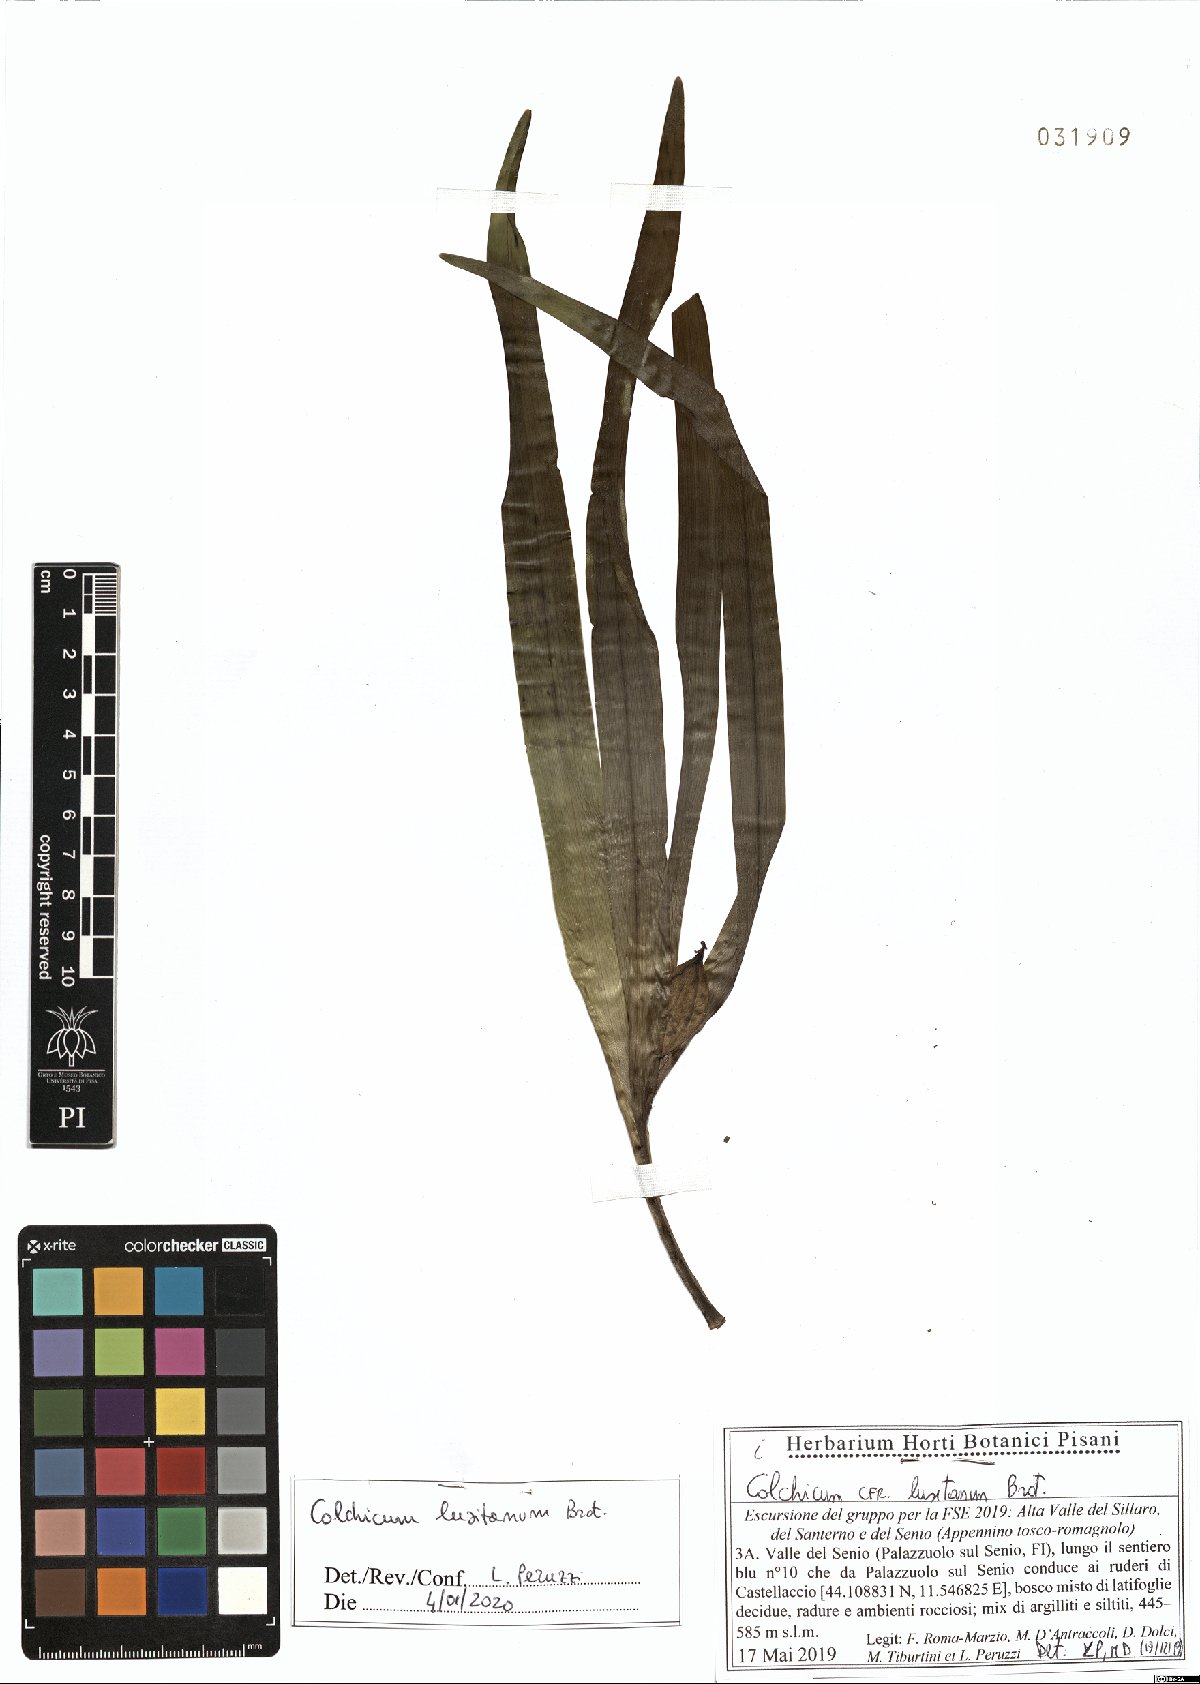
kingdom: Plantae
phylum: Tracheophyta
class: Liliopsida
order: Liliales
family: Colchicaceae
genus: Colchicum
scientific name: Colchicum lusitanum
